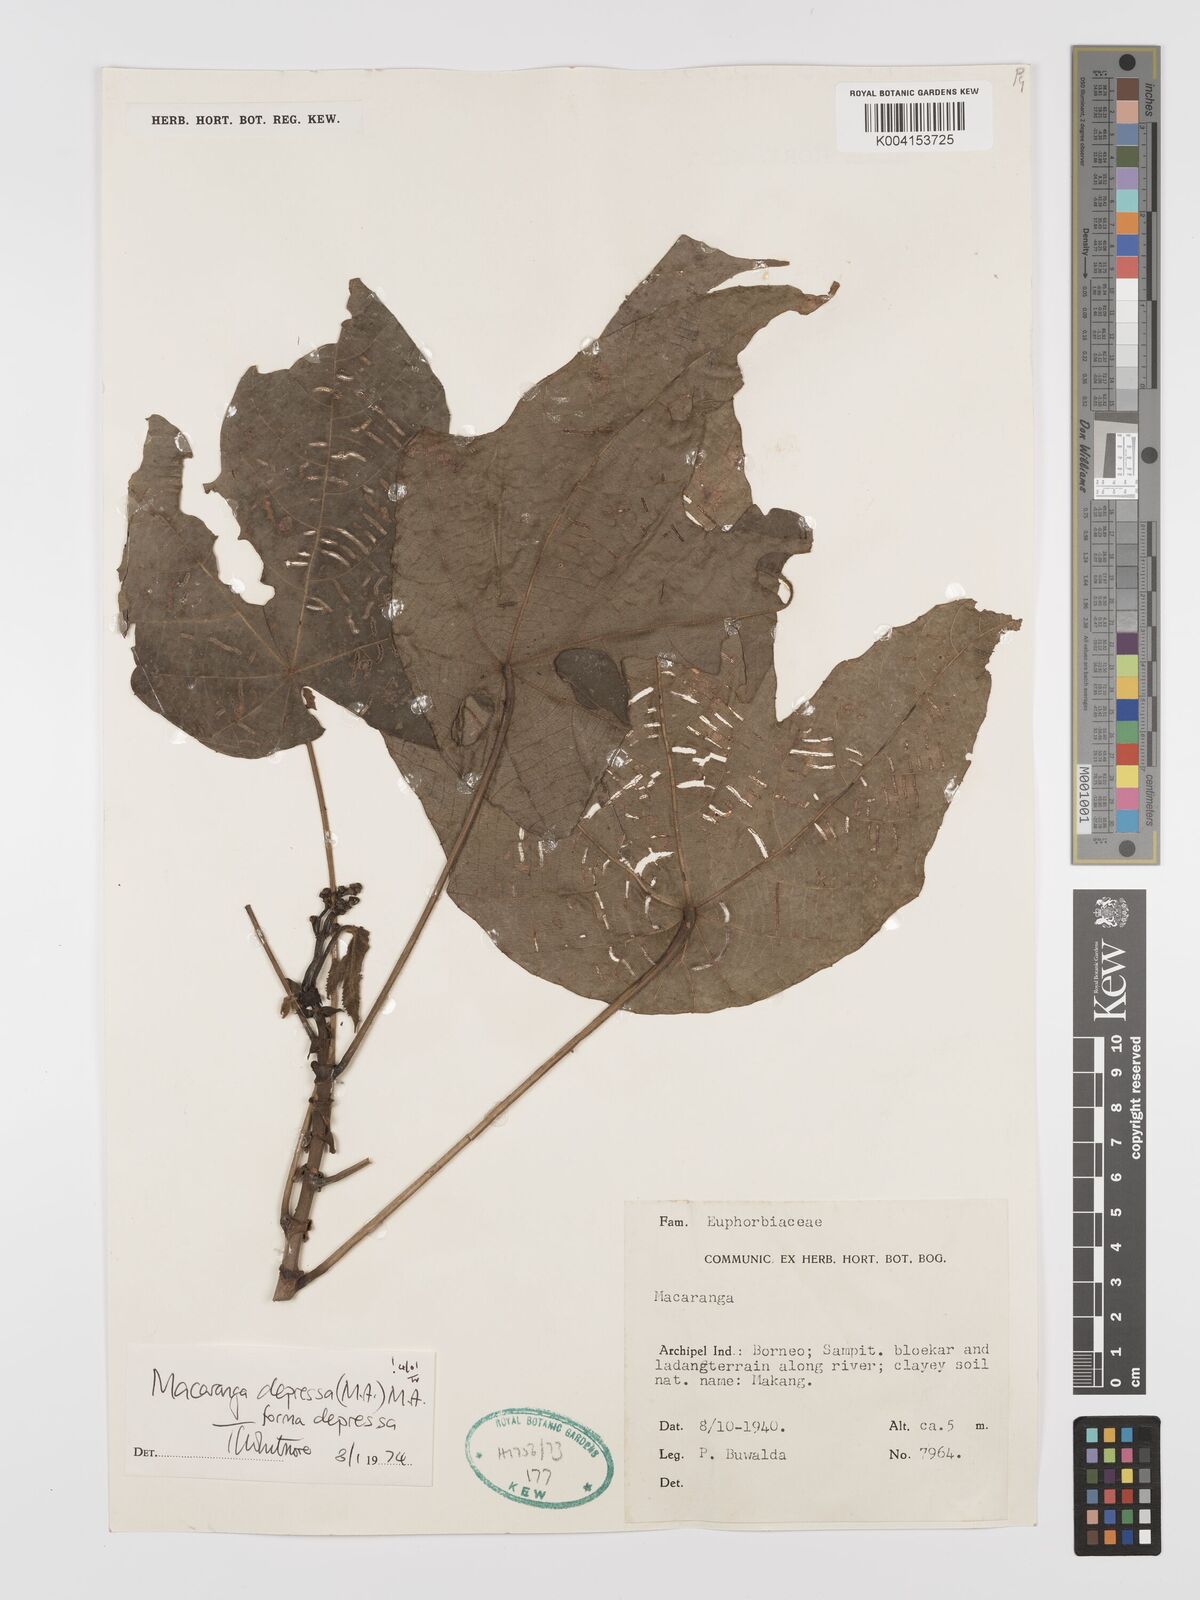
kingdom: Plantae
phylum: Tracheophyta
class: Magnoliopsida
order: Malpighiales
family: Euphorbiaceae
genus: Macaranga
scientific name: Macaranga depressa
